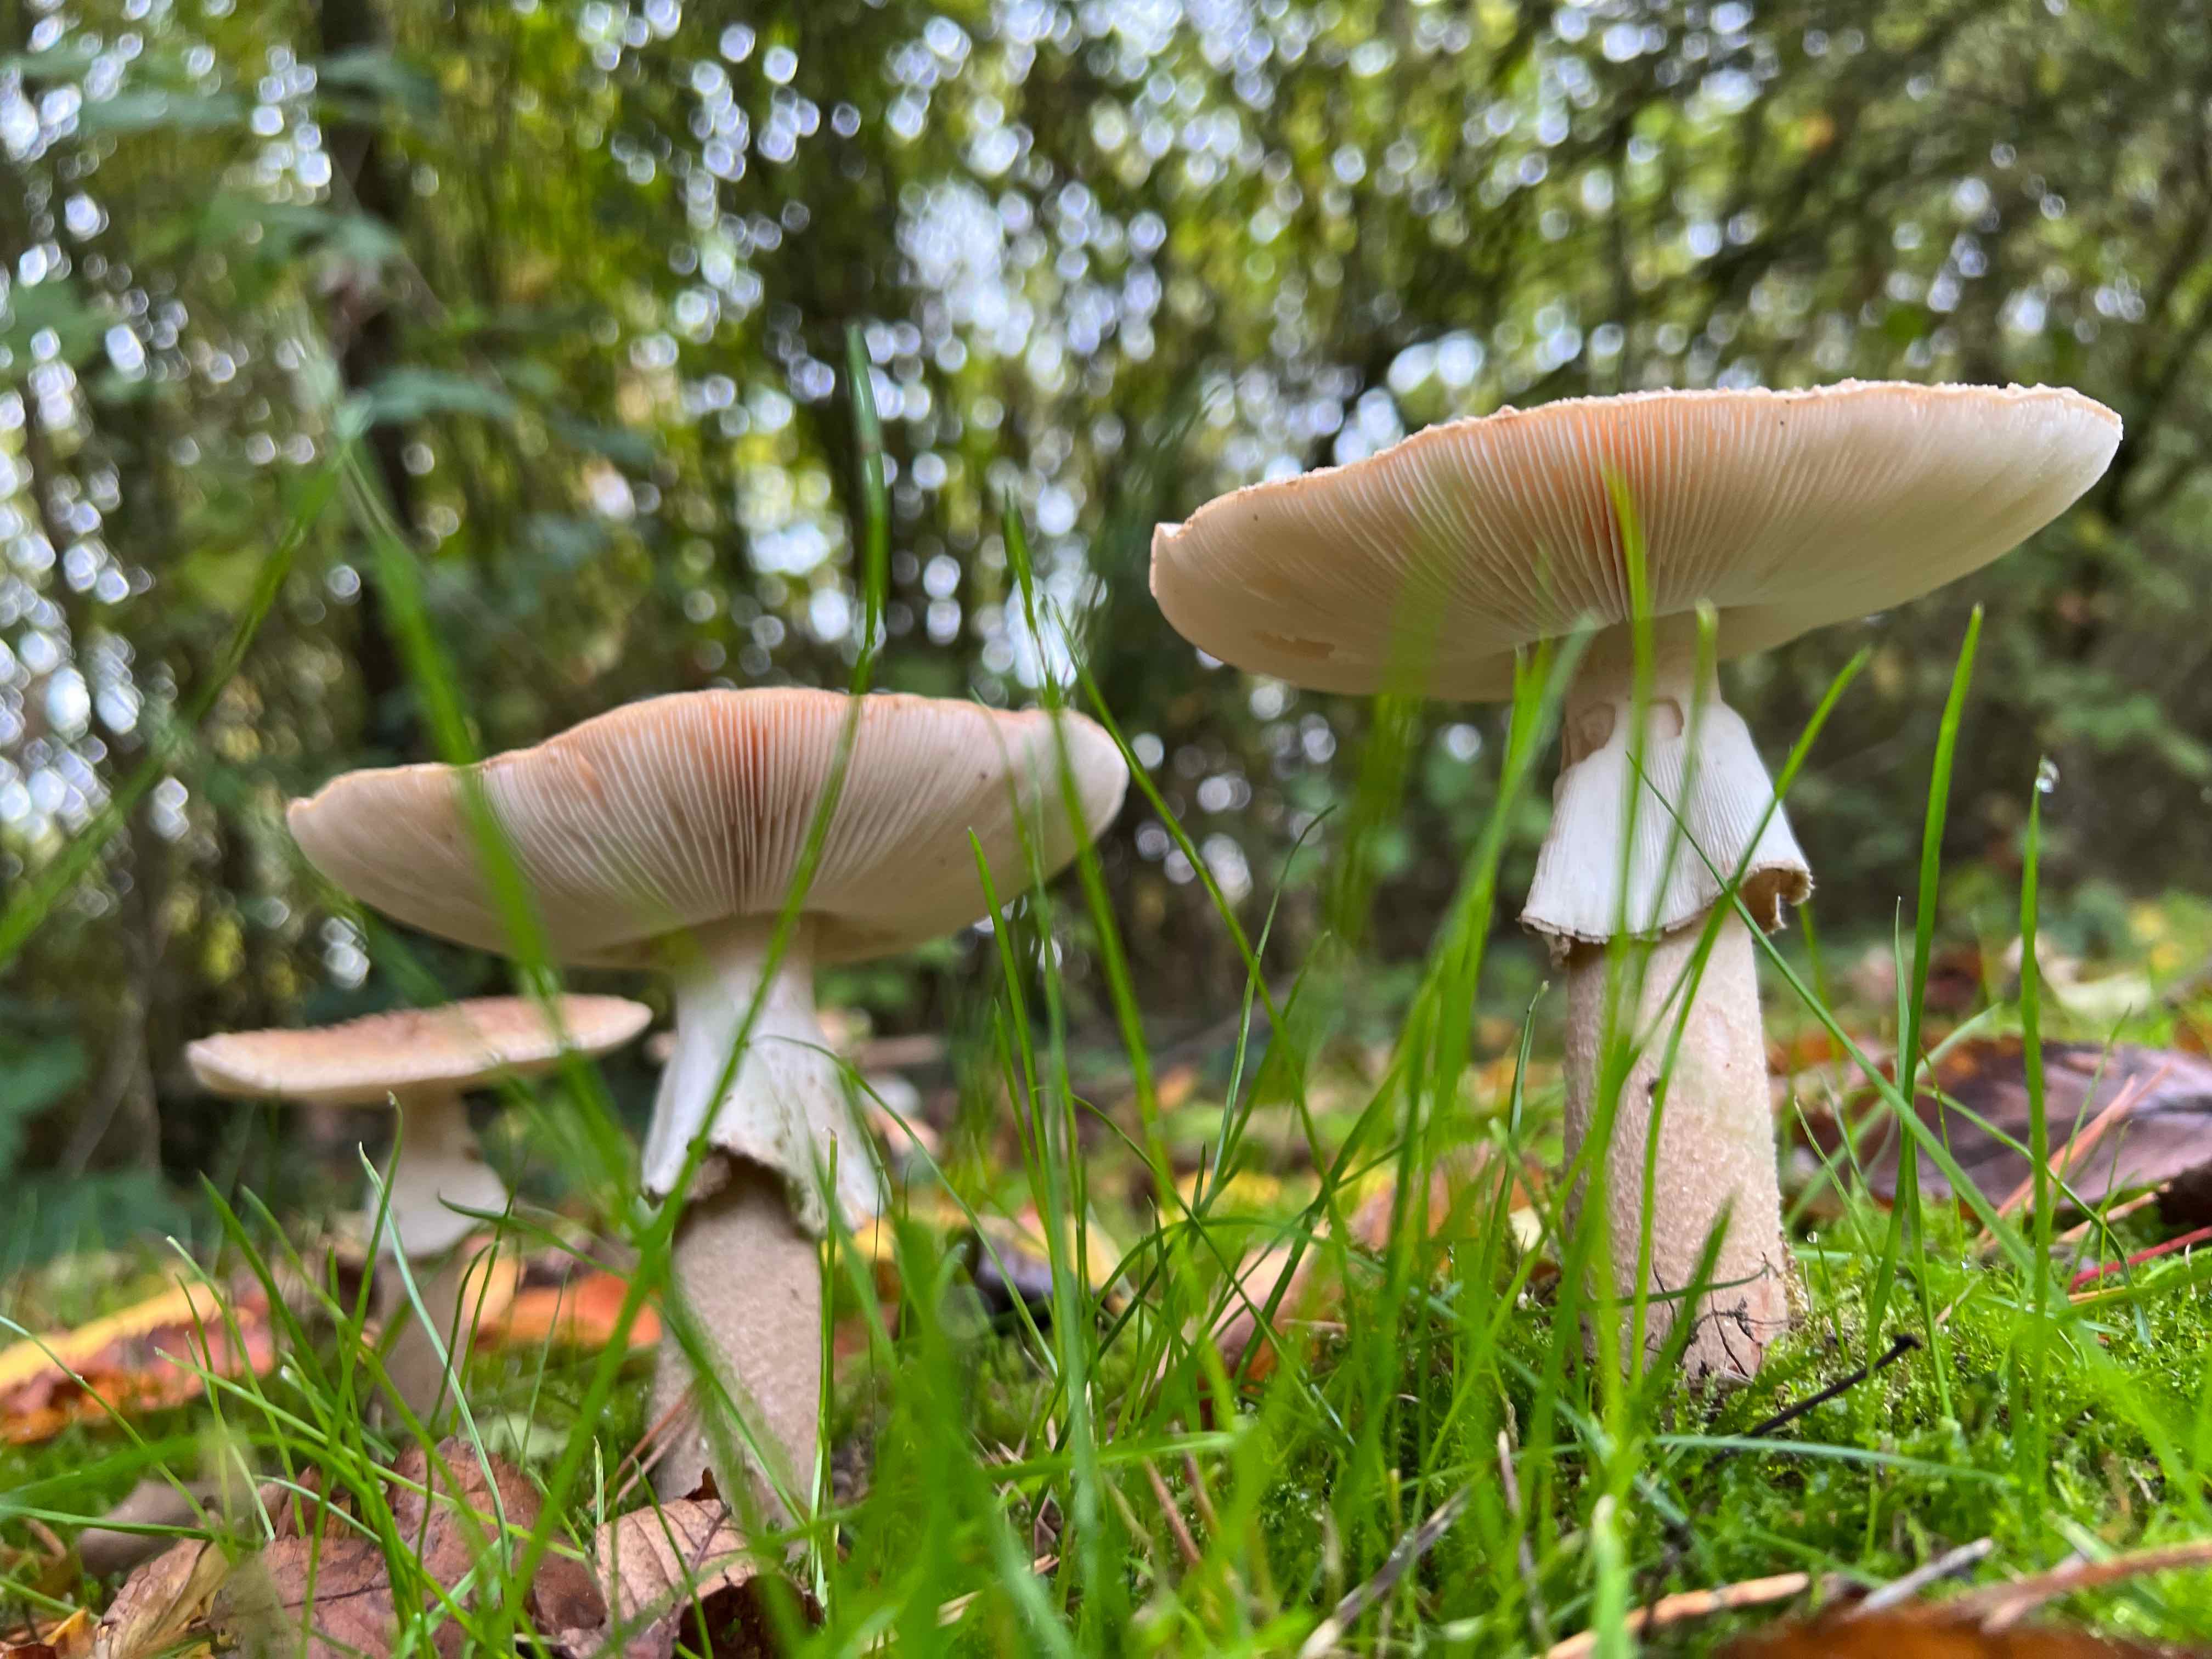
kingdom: Fungi
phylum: Basidiomycota
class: Agaricomycetes
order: Agaricales
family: Amanitaceae
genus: Amanita
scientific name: Amanita rubescens
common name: rødmende fluesvamp
